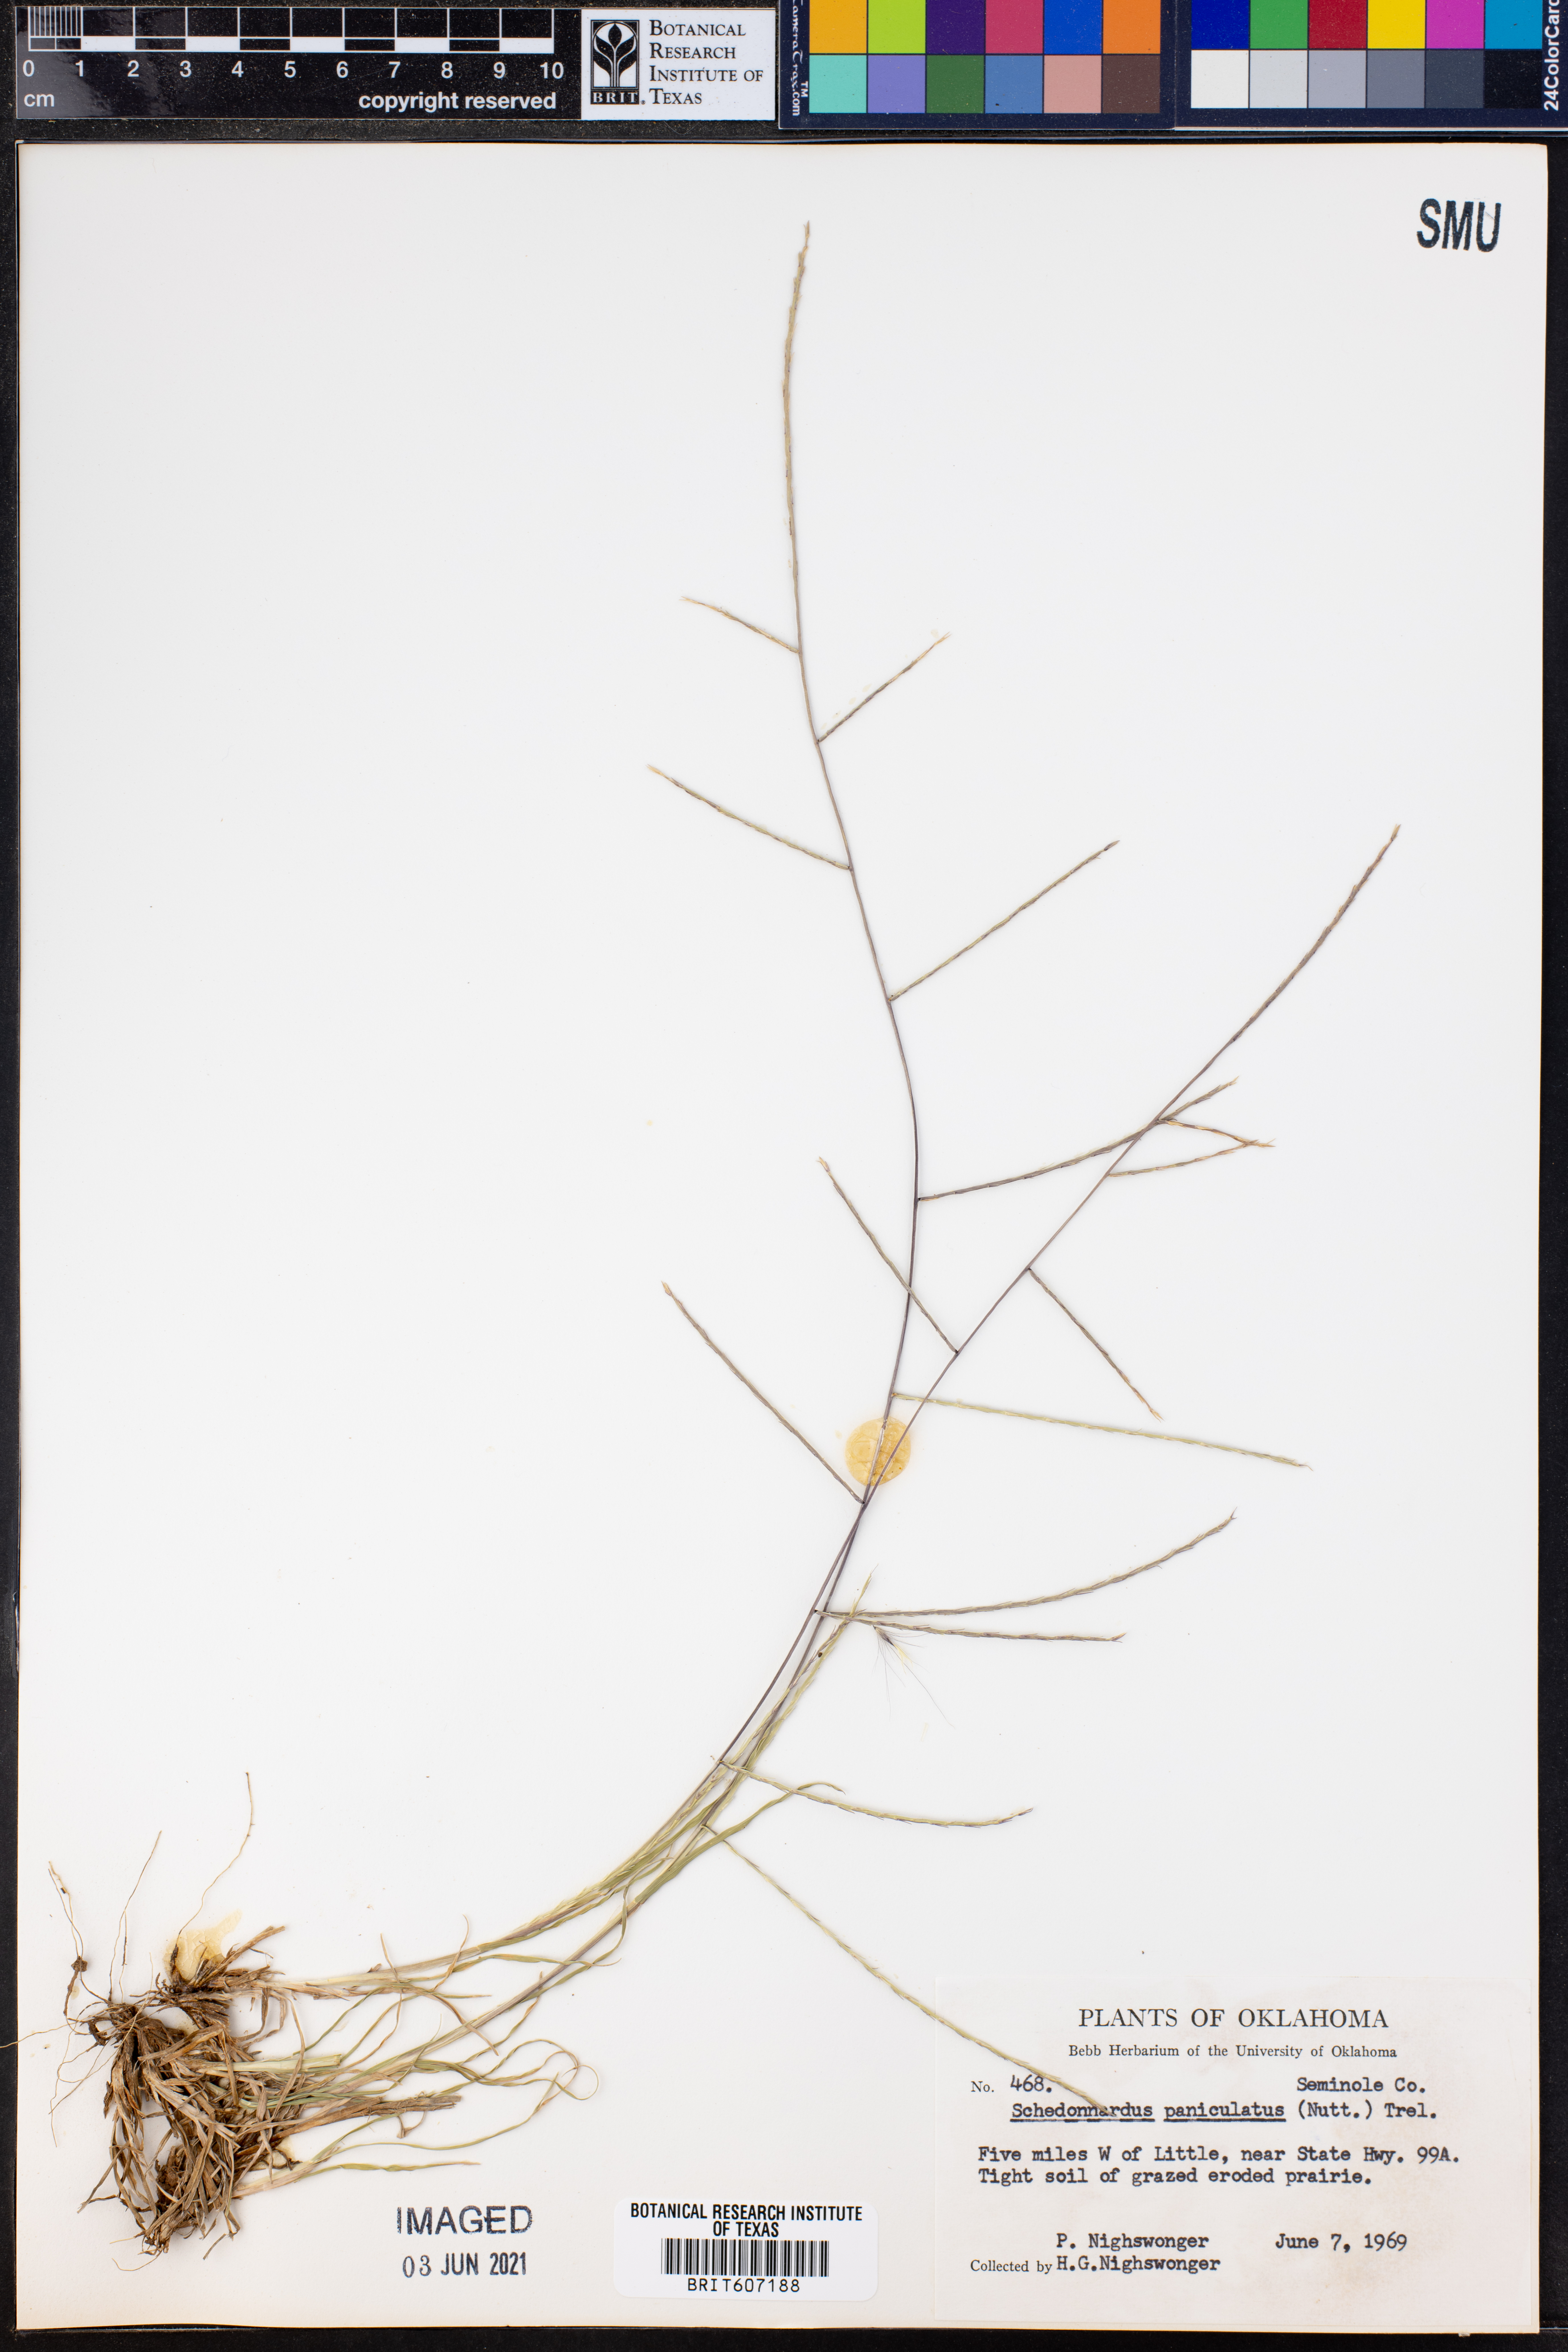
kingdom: Plantae
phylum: Tracheophyta
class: Liliopsida
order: Poales
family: Poaceae
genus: Muhlenbergia
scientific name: Muhlenbergia paniculata
